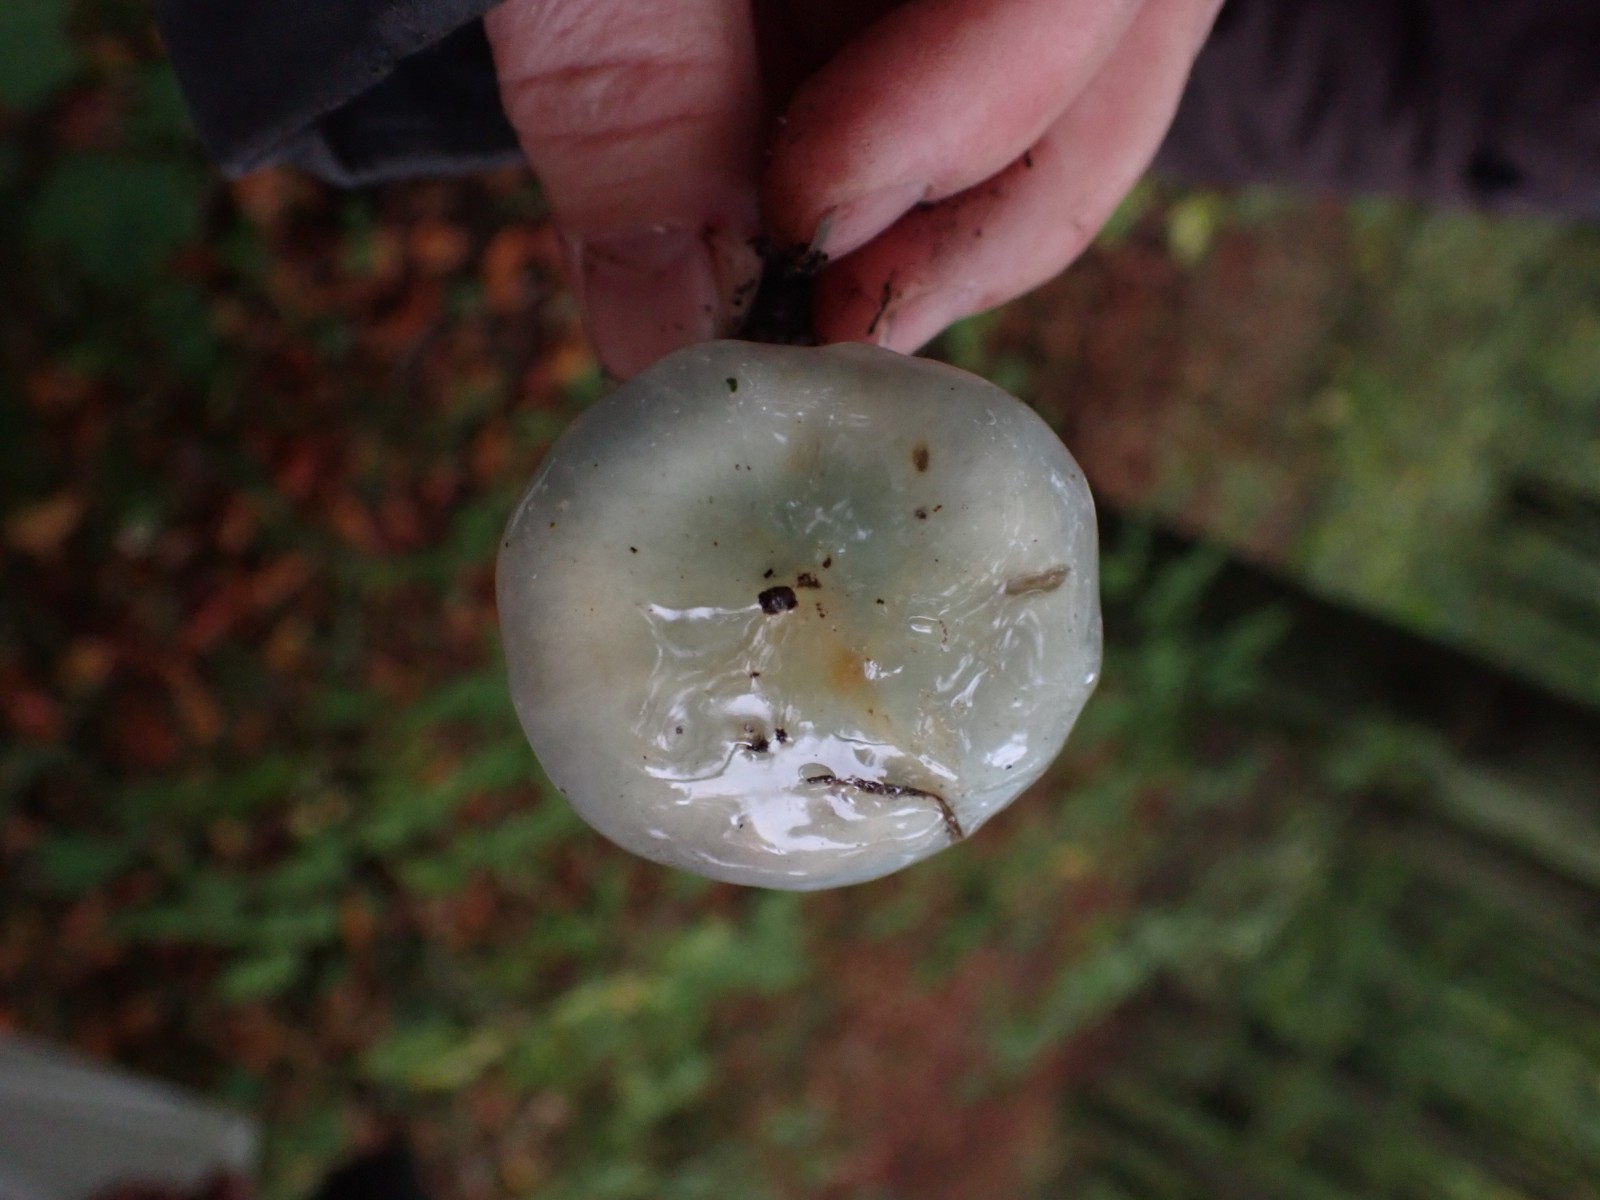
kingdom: Fungi
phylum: Basidiomycota
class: Agaricomycetes
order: Agaricales
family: Strophariaceae
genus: Stropharia
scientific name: Stropharia cyanea
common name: blågrøn bredblad
